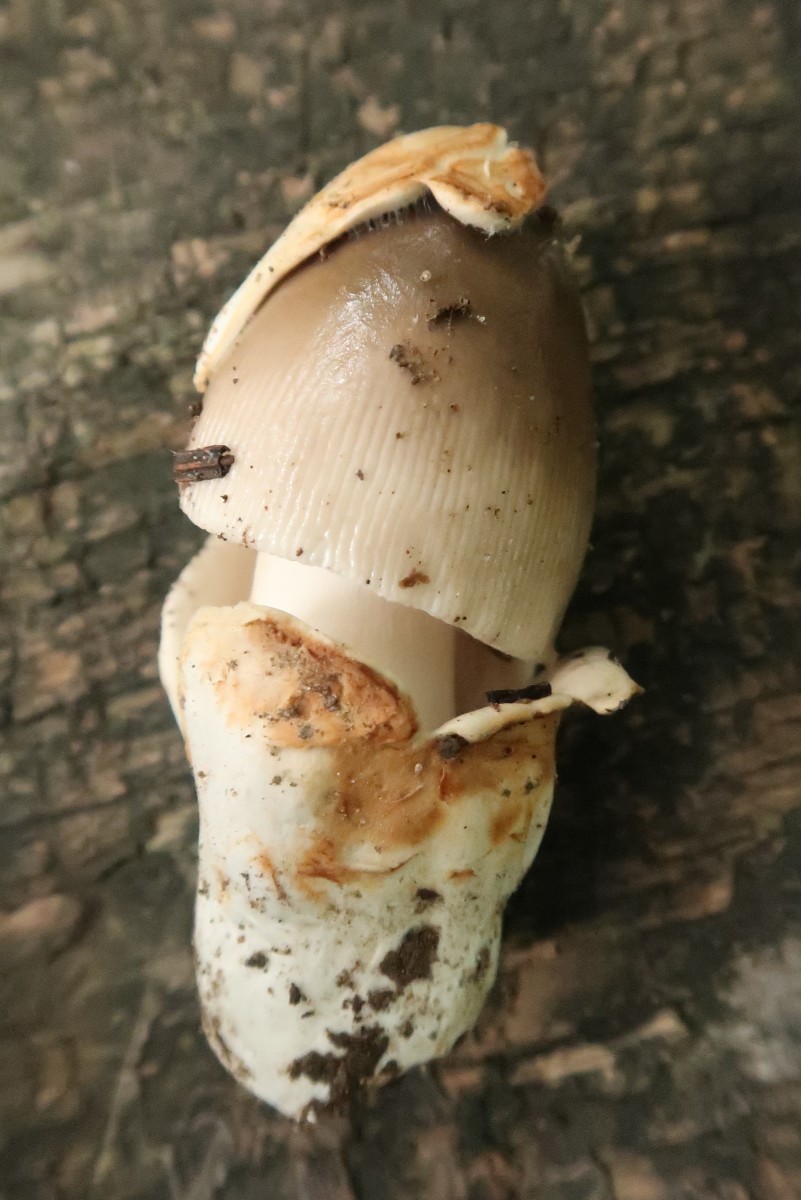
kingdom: Fungi
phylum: Basidiomycota
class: Agaricomycetes
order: Agaricales
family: Amanitaceae
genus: Amanita
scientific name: Amanita
